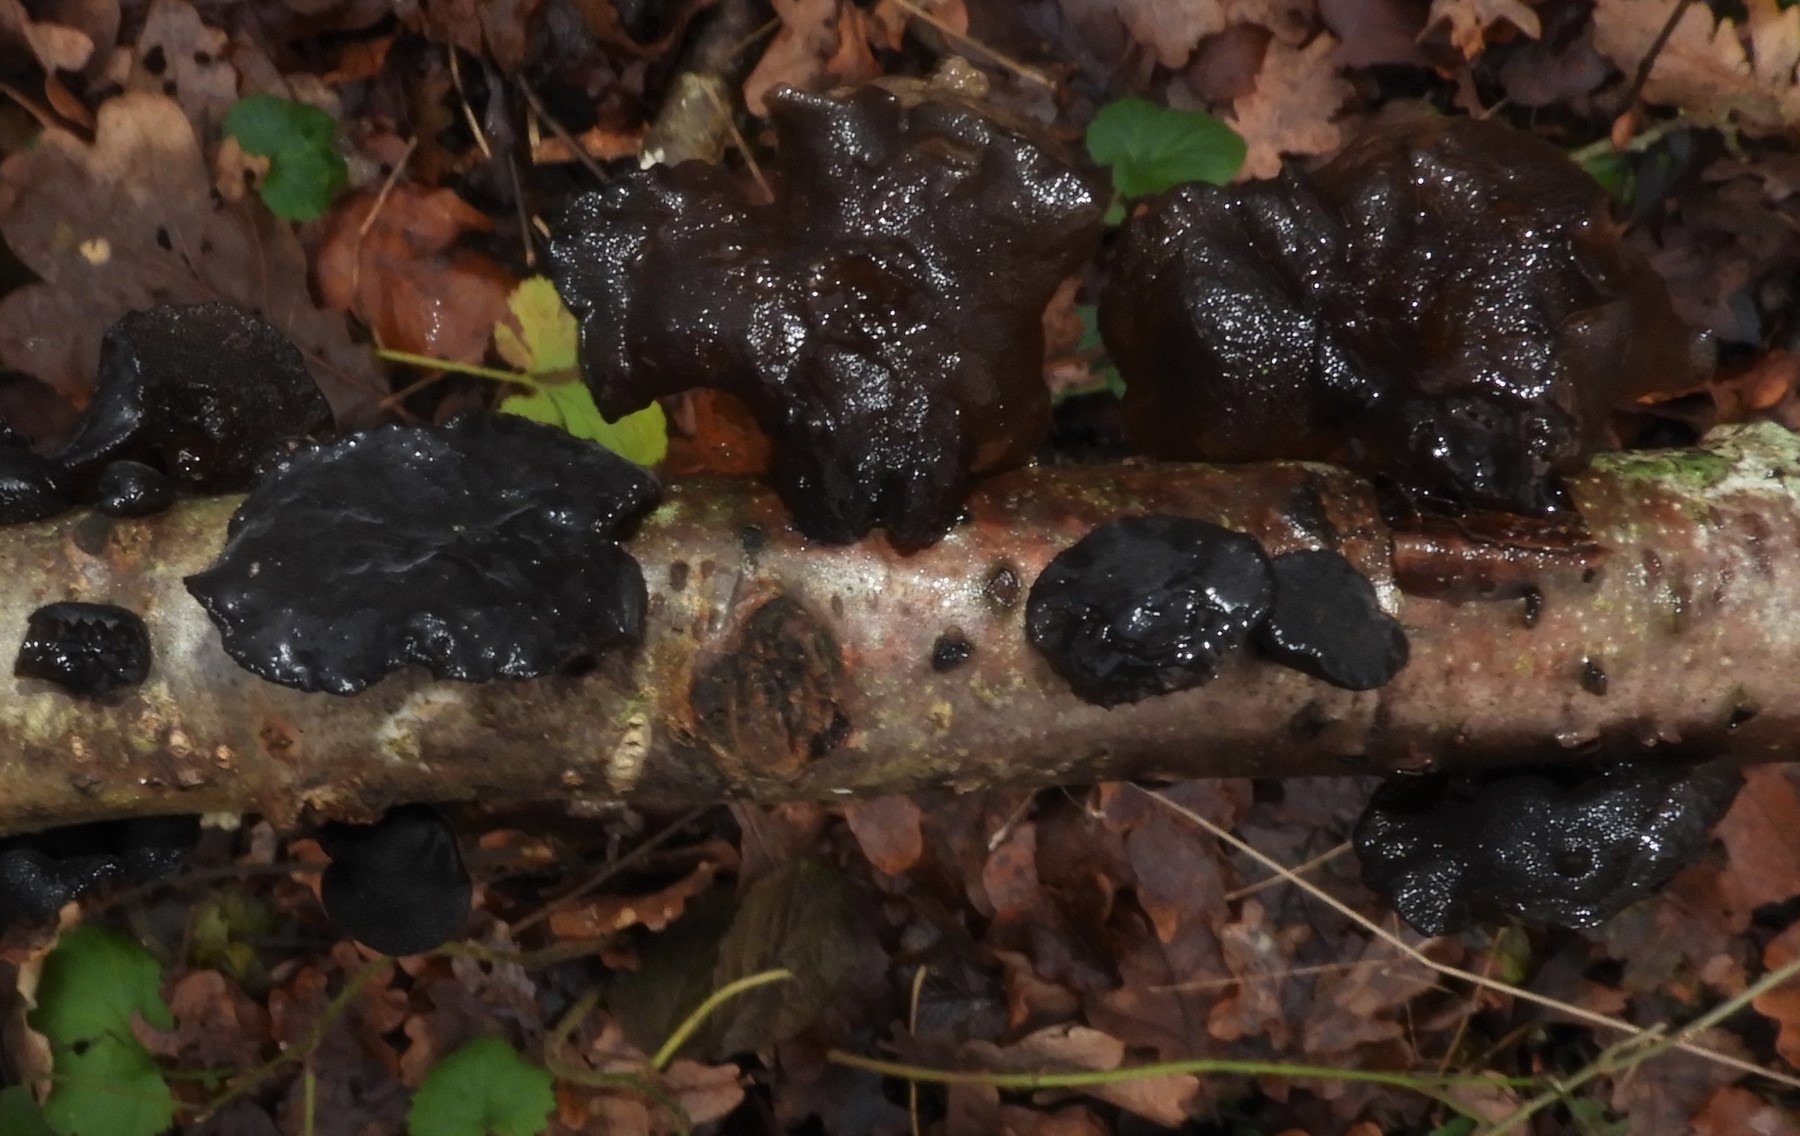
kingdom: Fungi
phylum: Basidiomycota
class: Agaricomycetes
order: Auriculariales
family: Auriculariaceae
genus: Exidia
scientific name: Exidia glandulosa
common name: ege-bævretop
